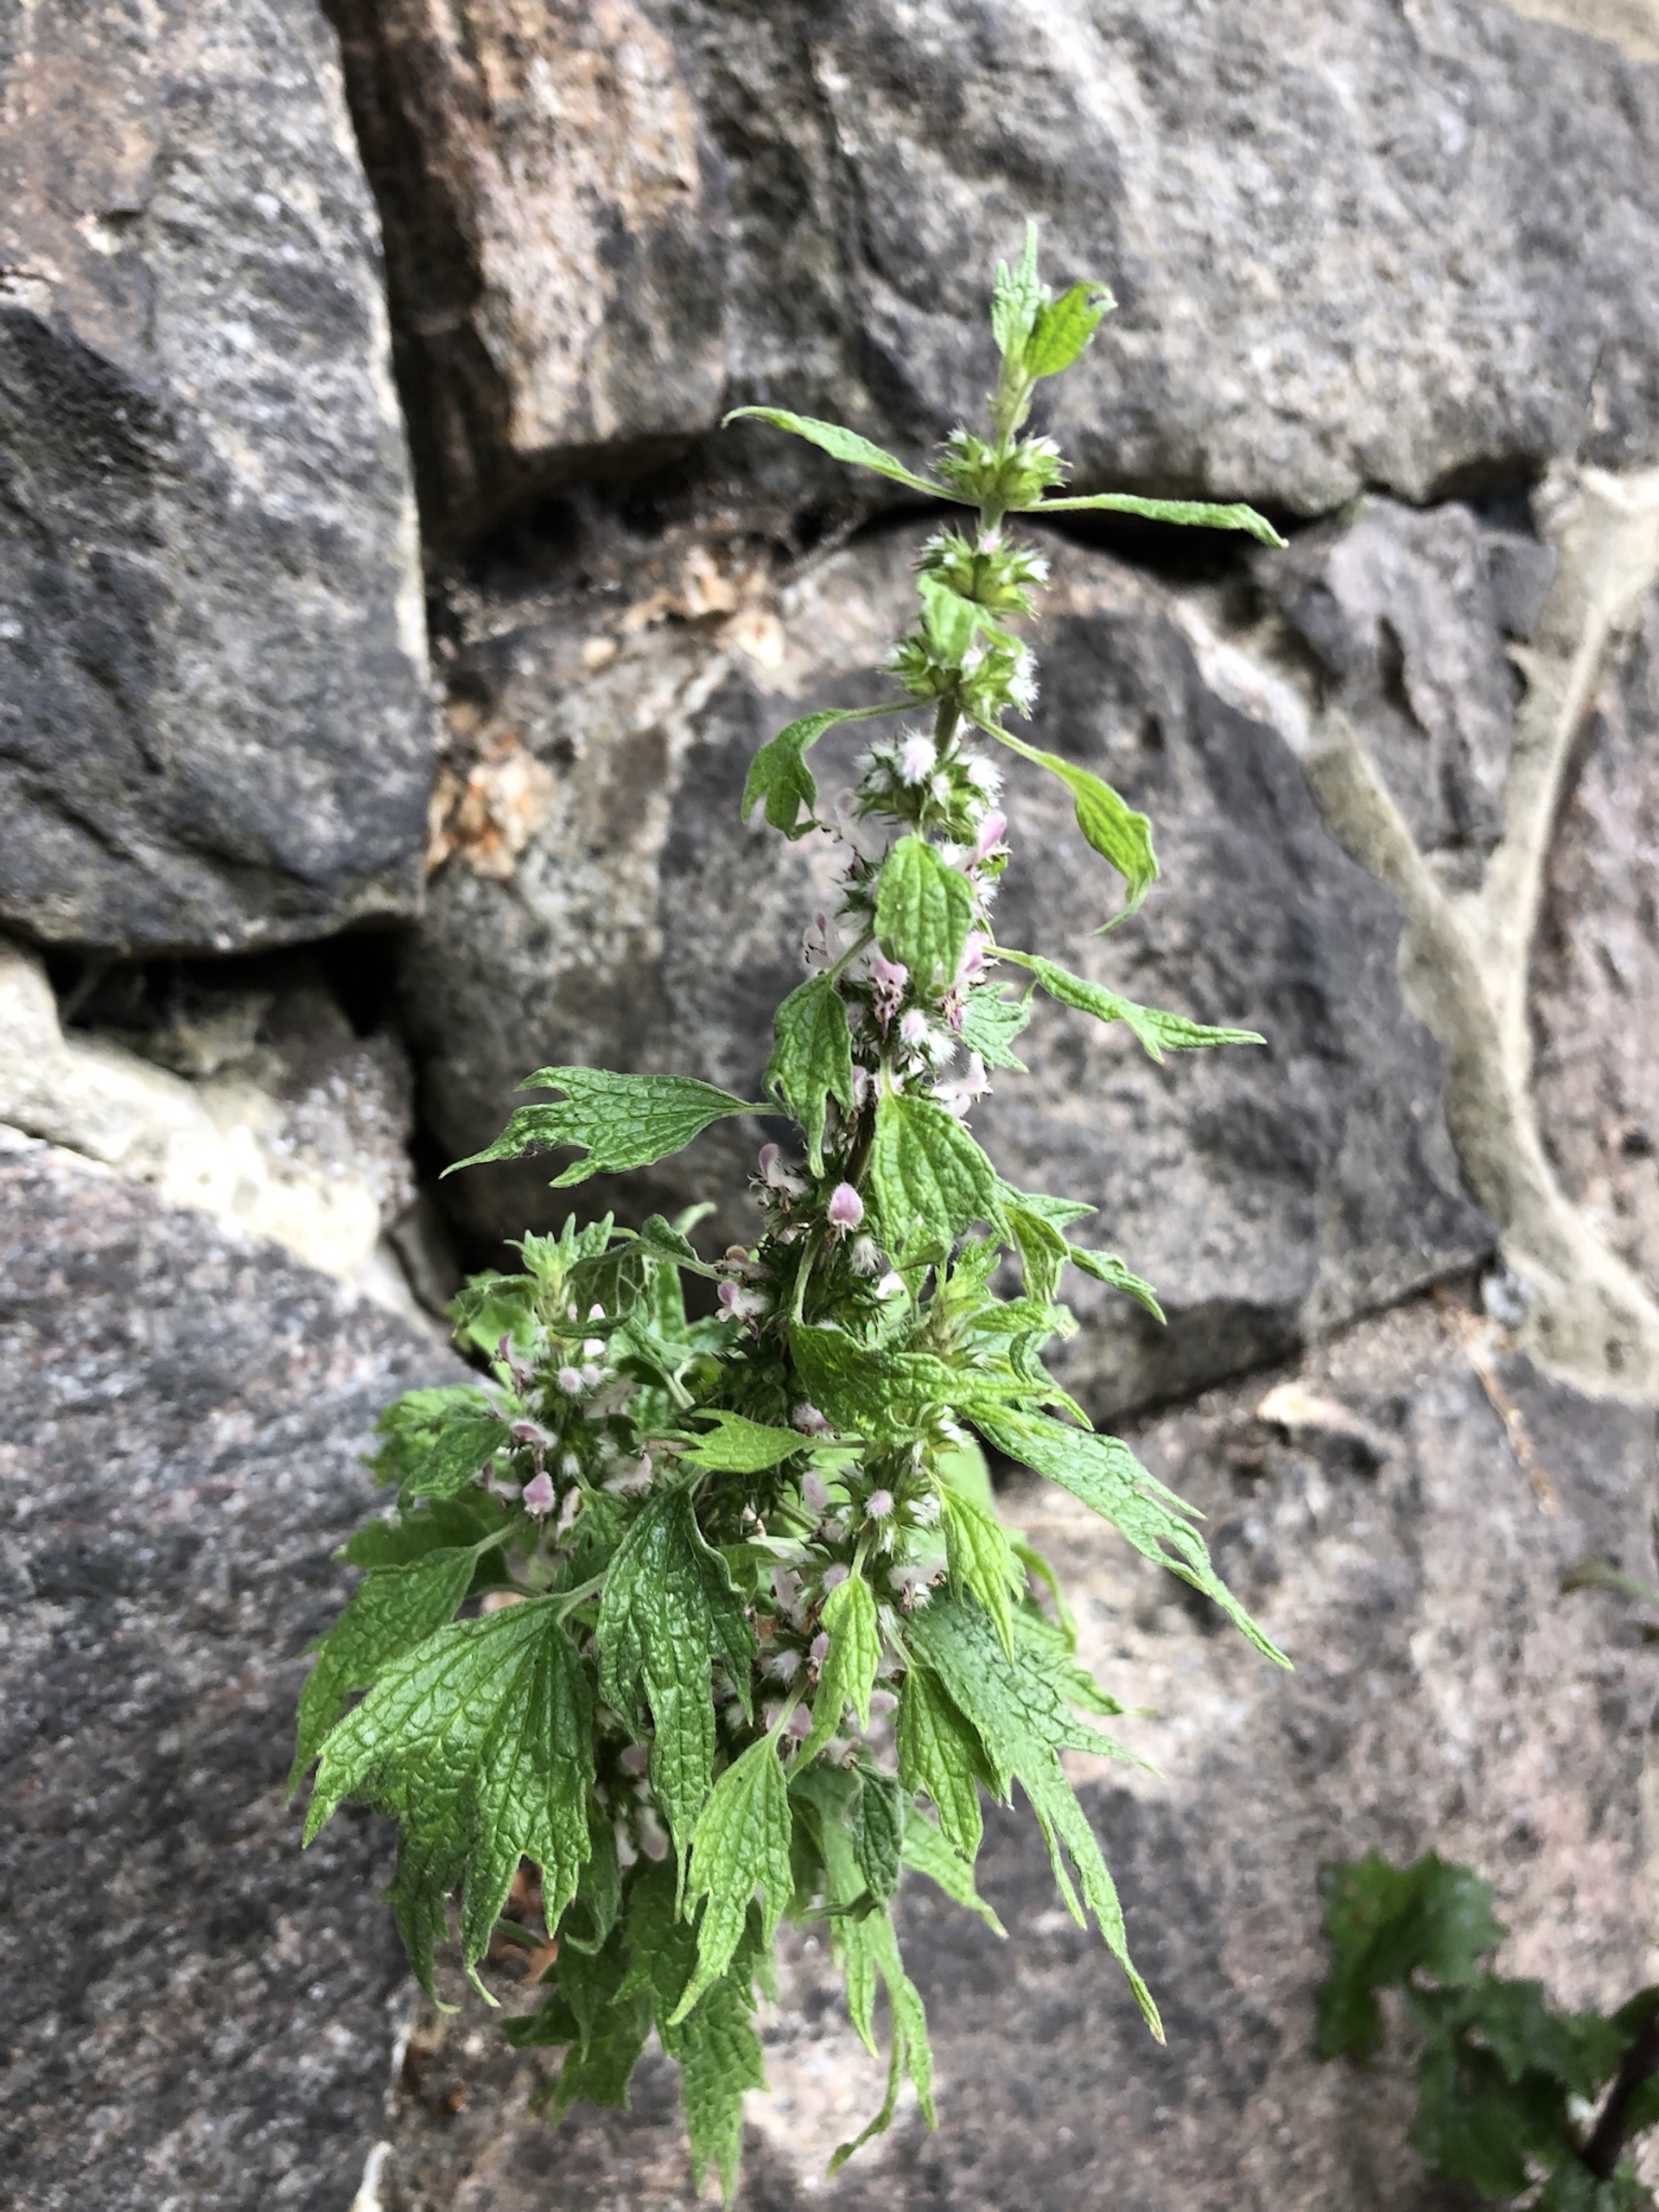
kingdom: Plantae
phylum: Tracheophyta
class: Magnoliopsida
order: Lamiales
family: Lamiaceae
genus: Leonurus
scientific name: Leonurus cardiaca
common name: Hjertespand
